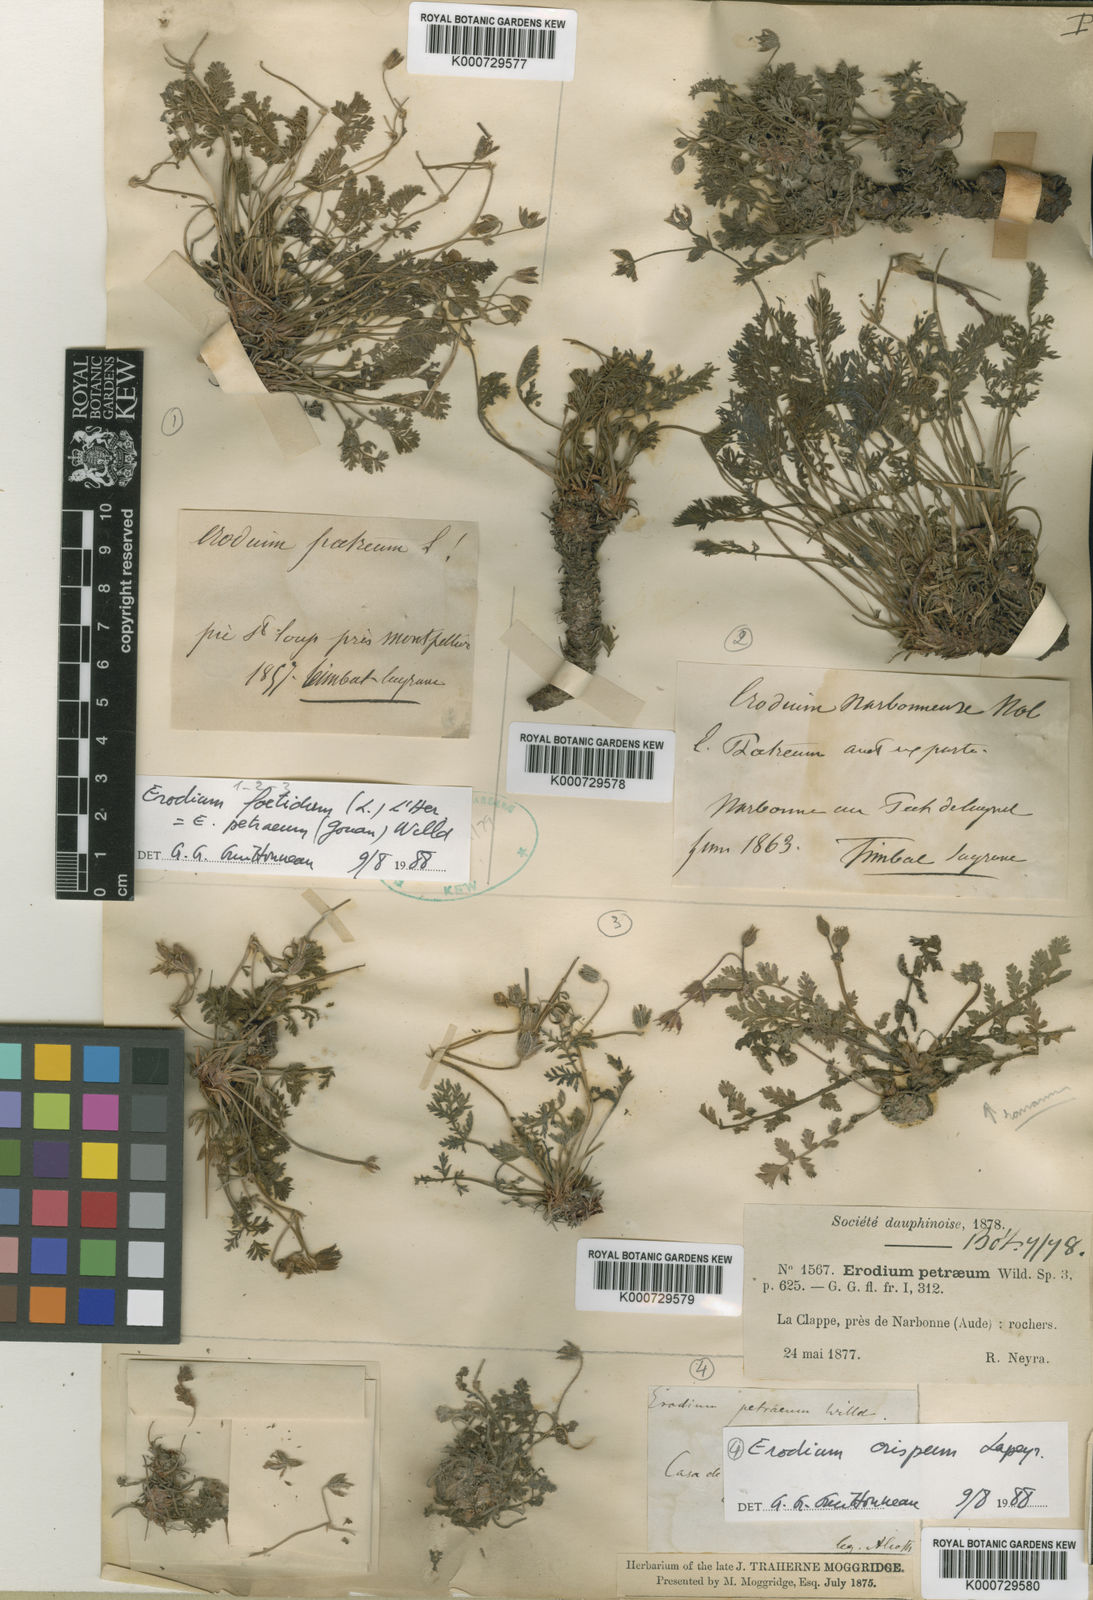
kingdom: Plantae
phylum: Tracheophyta
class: Magnoliopsida
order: Geraniales
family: Geraniaceae
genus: Erodium
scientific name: Erodium glandulosum
